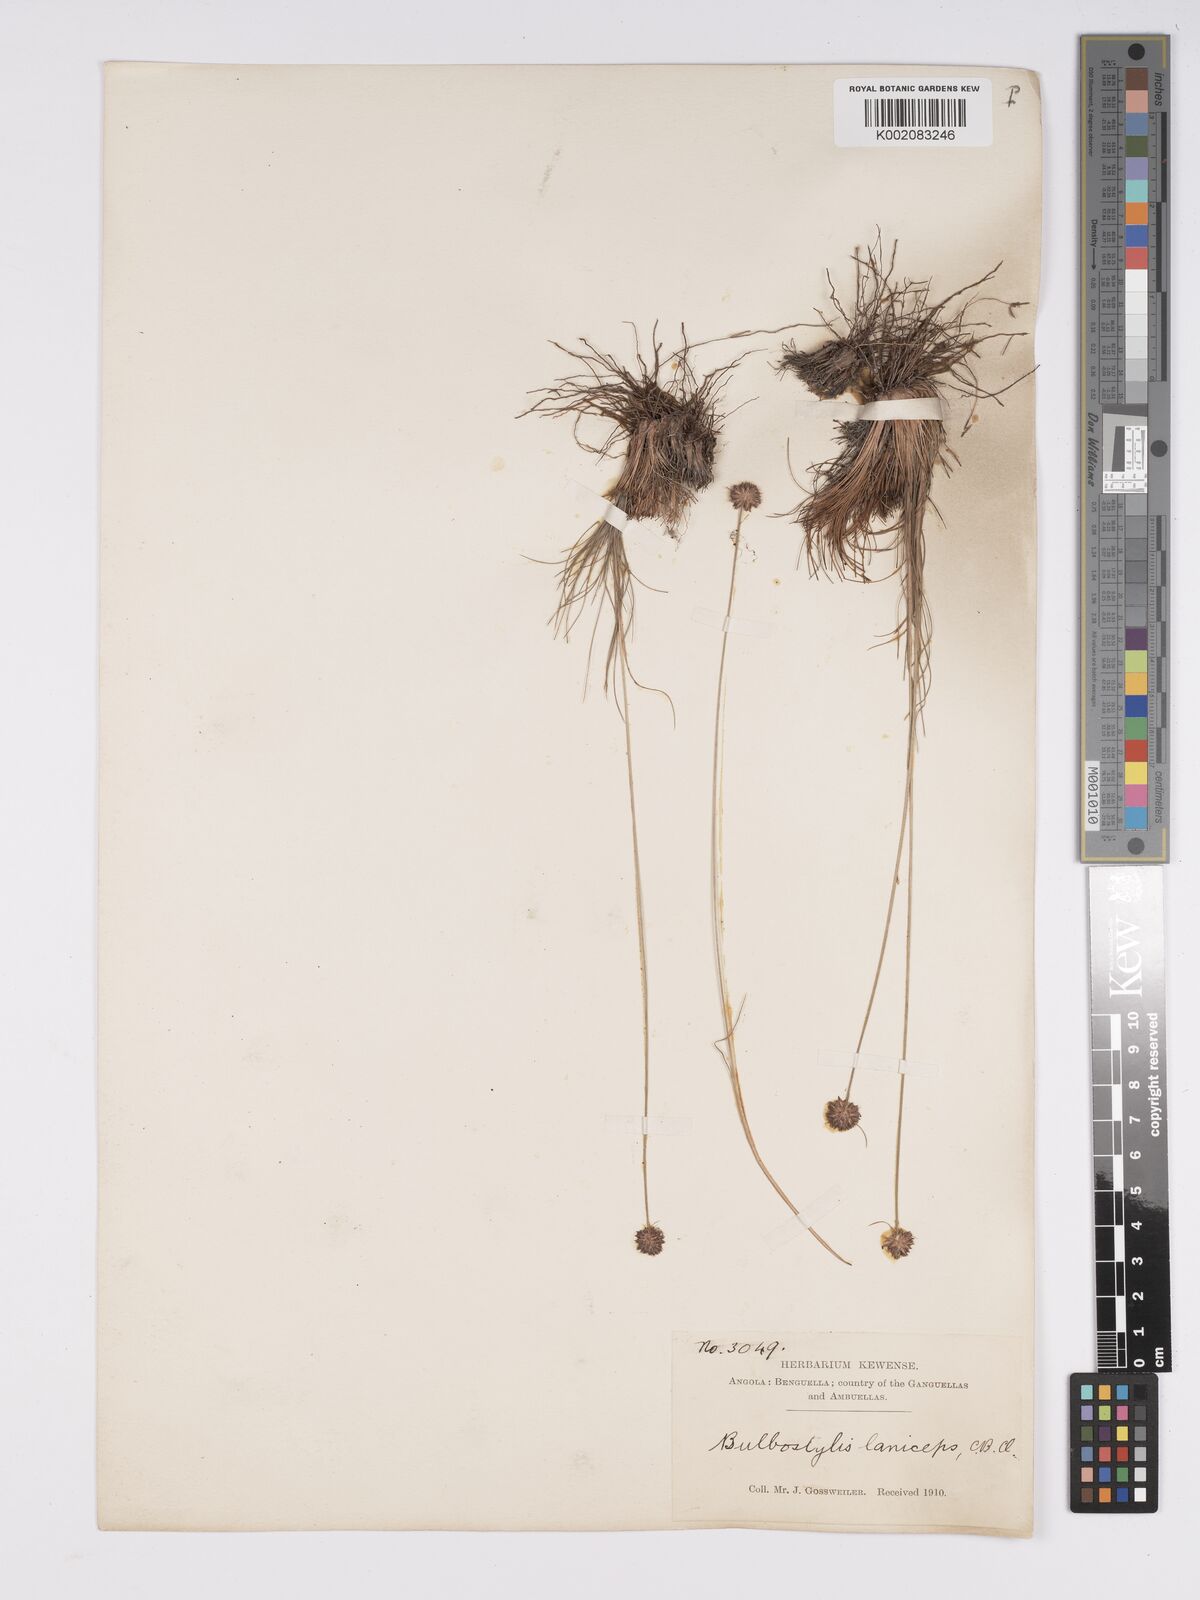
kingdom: Plantae
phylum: Tracheophyta
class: Liliopsida
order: Poales
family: Cyperaceae
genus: Bulbostylis
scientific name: Bulbostylis laniceps
